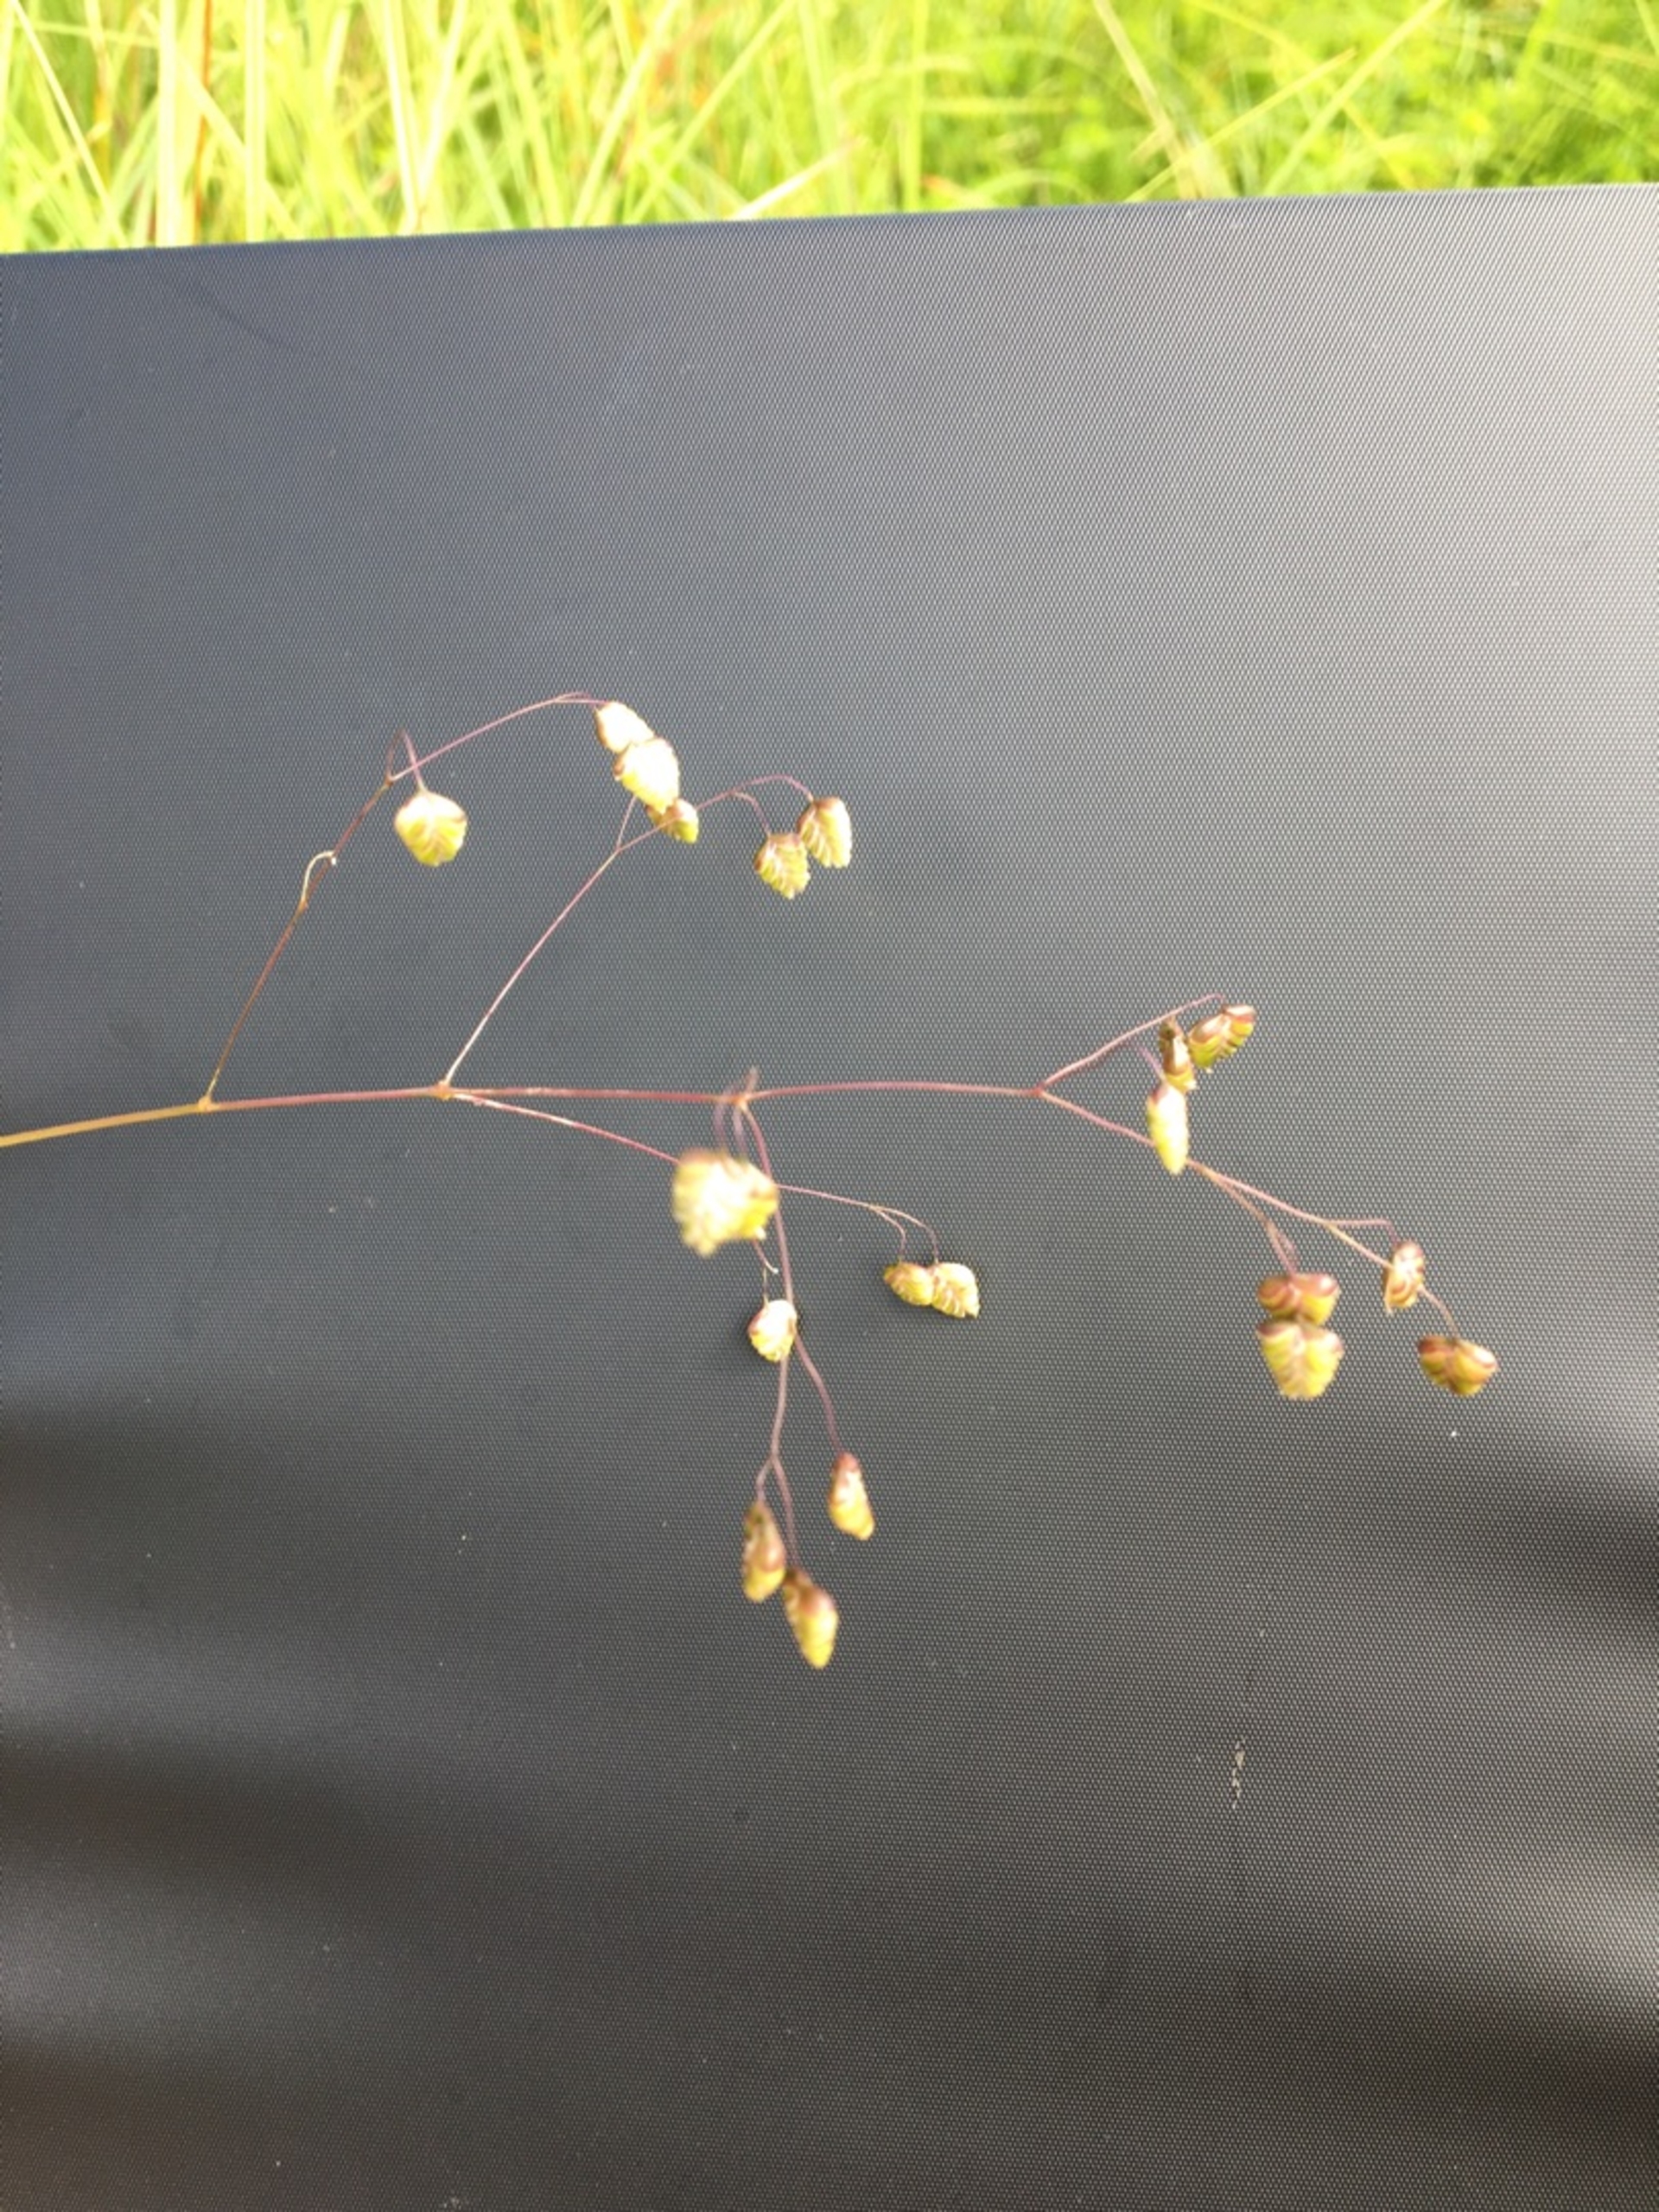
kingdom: Plantae
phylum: Tracheophyta
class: Liliopsida
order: Poales
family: Poaceae
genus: Briza
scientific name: Briza media
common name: Hjertegræs
